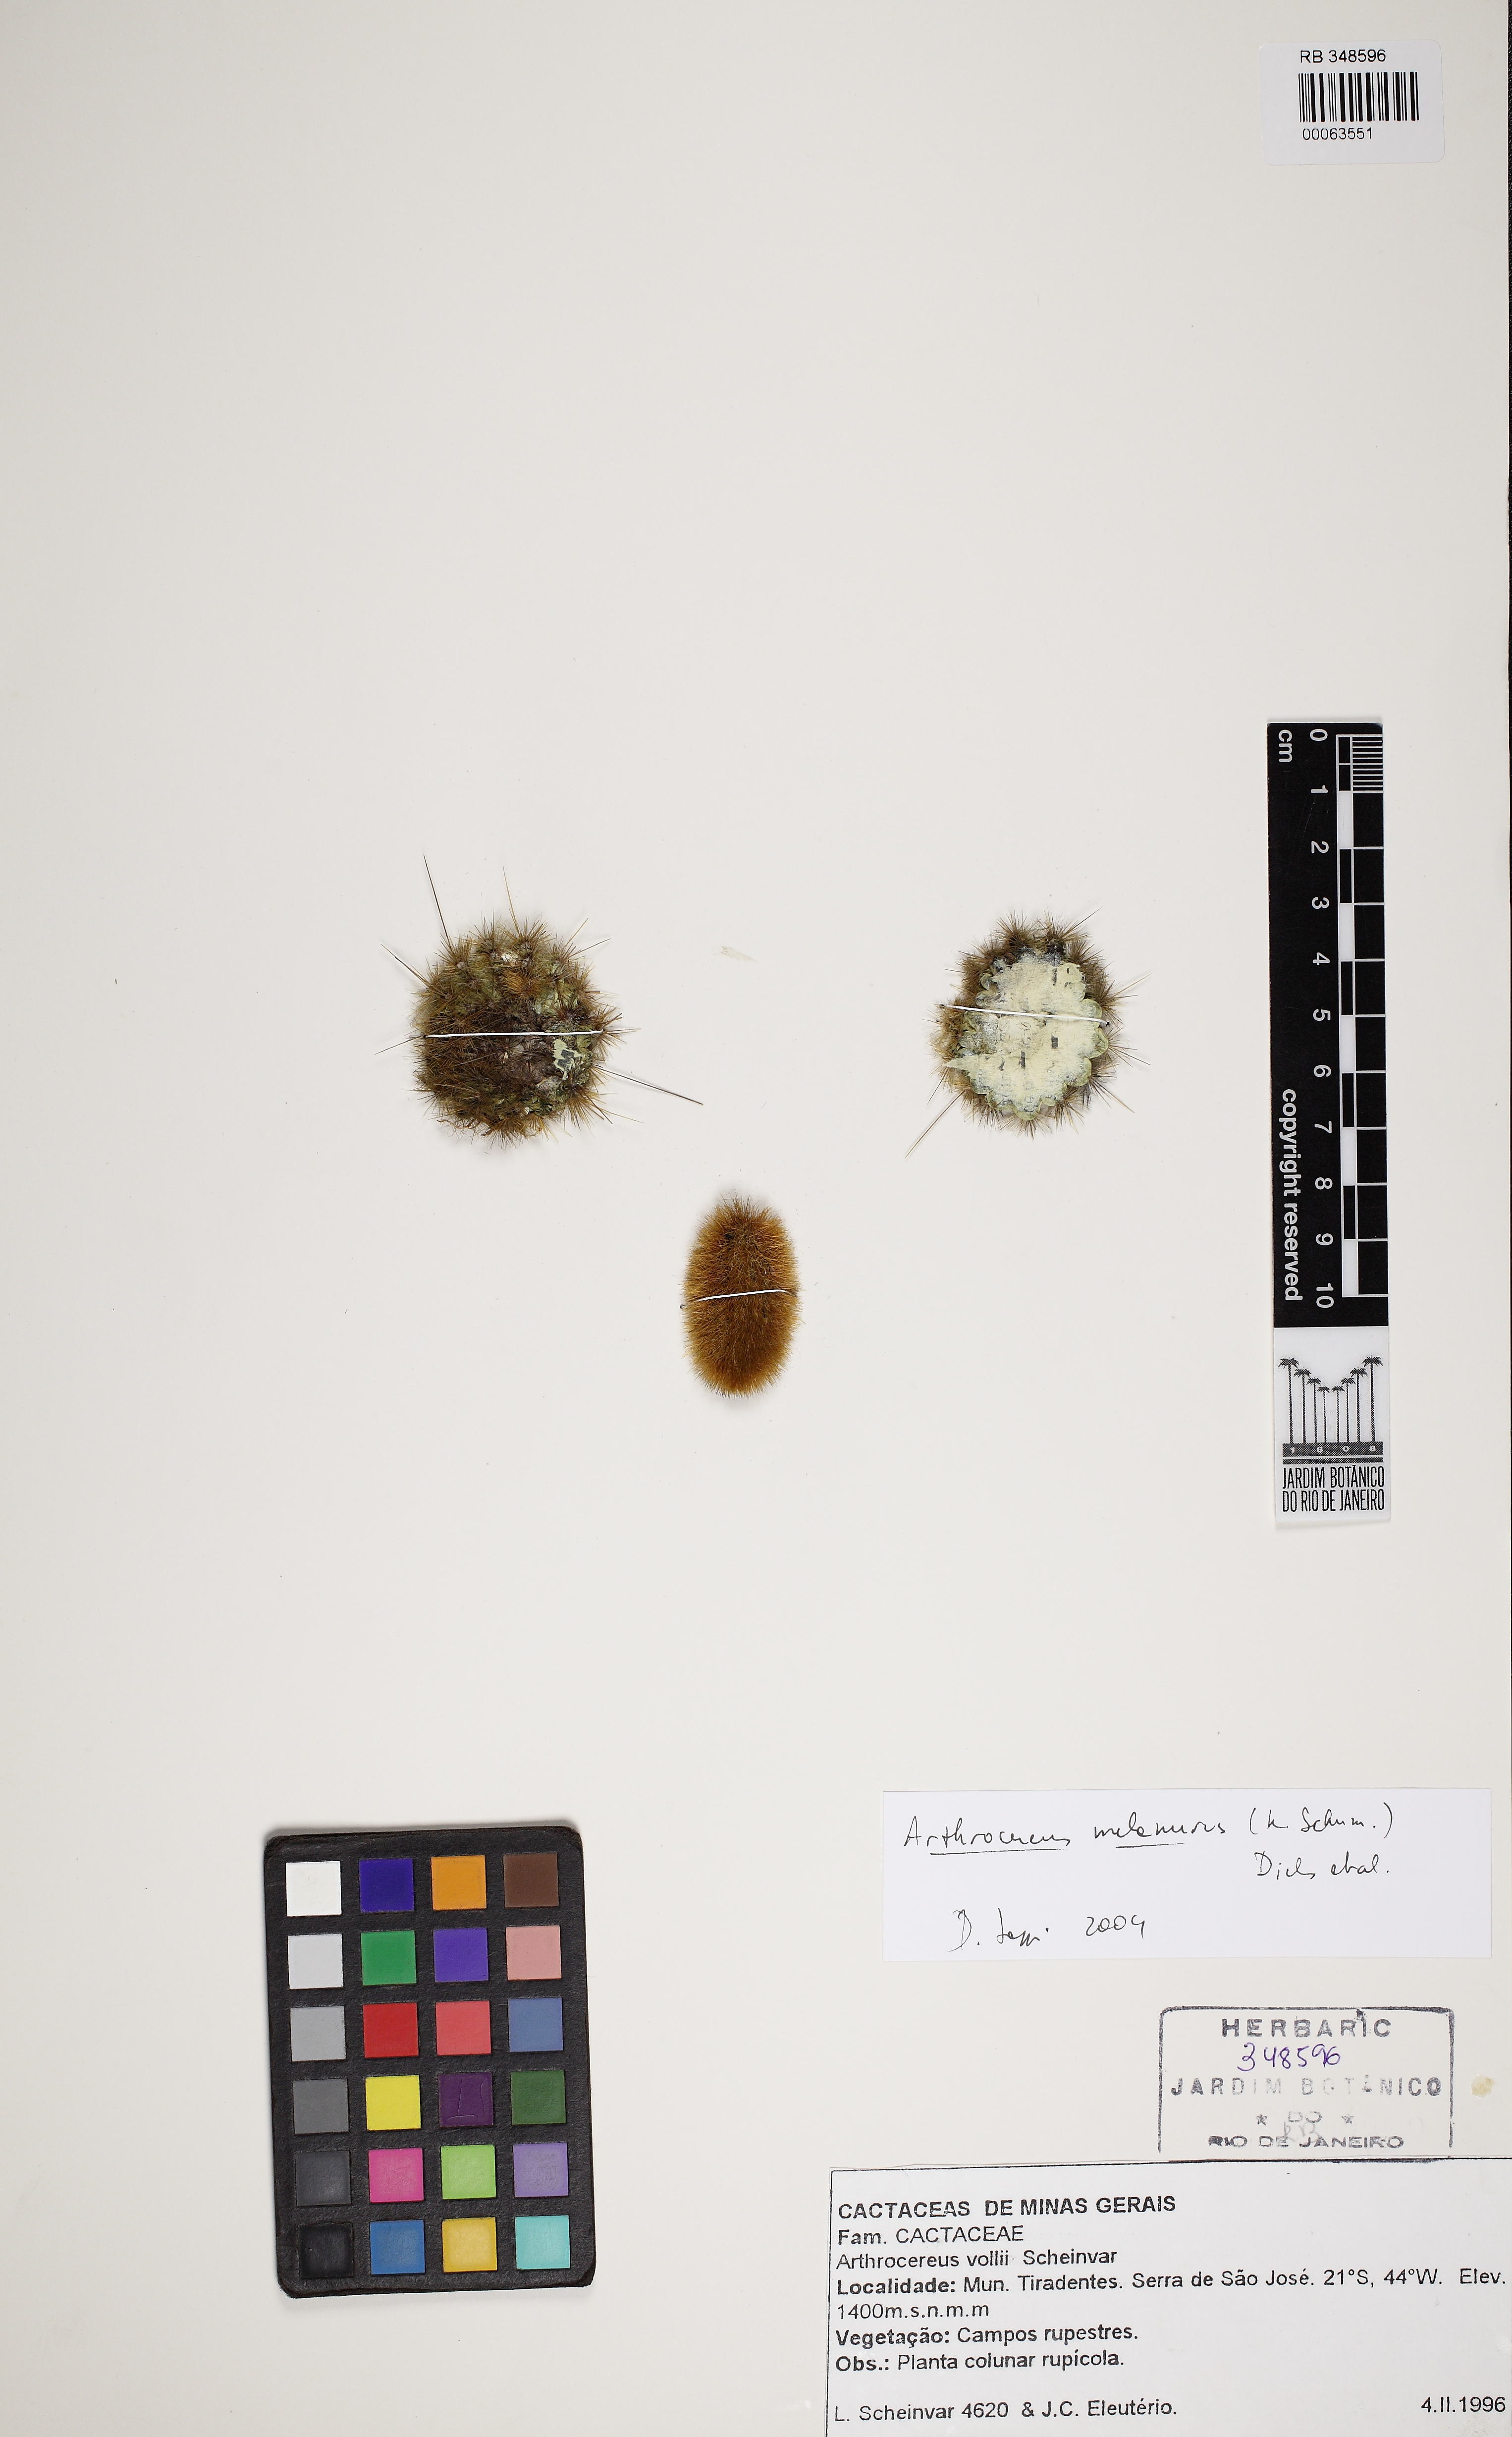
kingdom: Plantae
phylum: Tracheophyta
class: Magnoliopsida
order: Caryophyllales
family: Cactaceae
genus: Arthrocereus
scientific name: Arthrocereus melanurus
